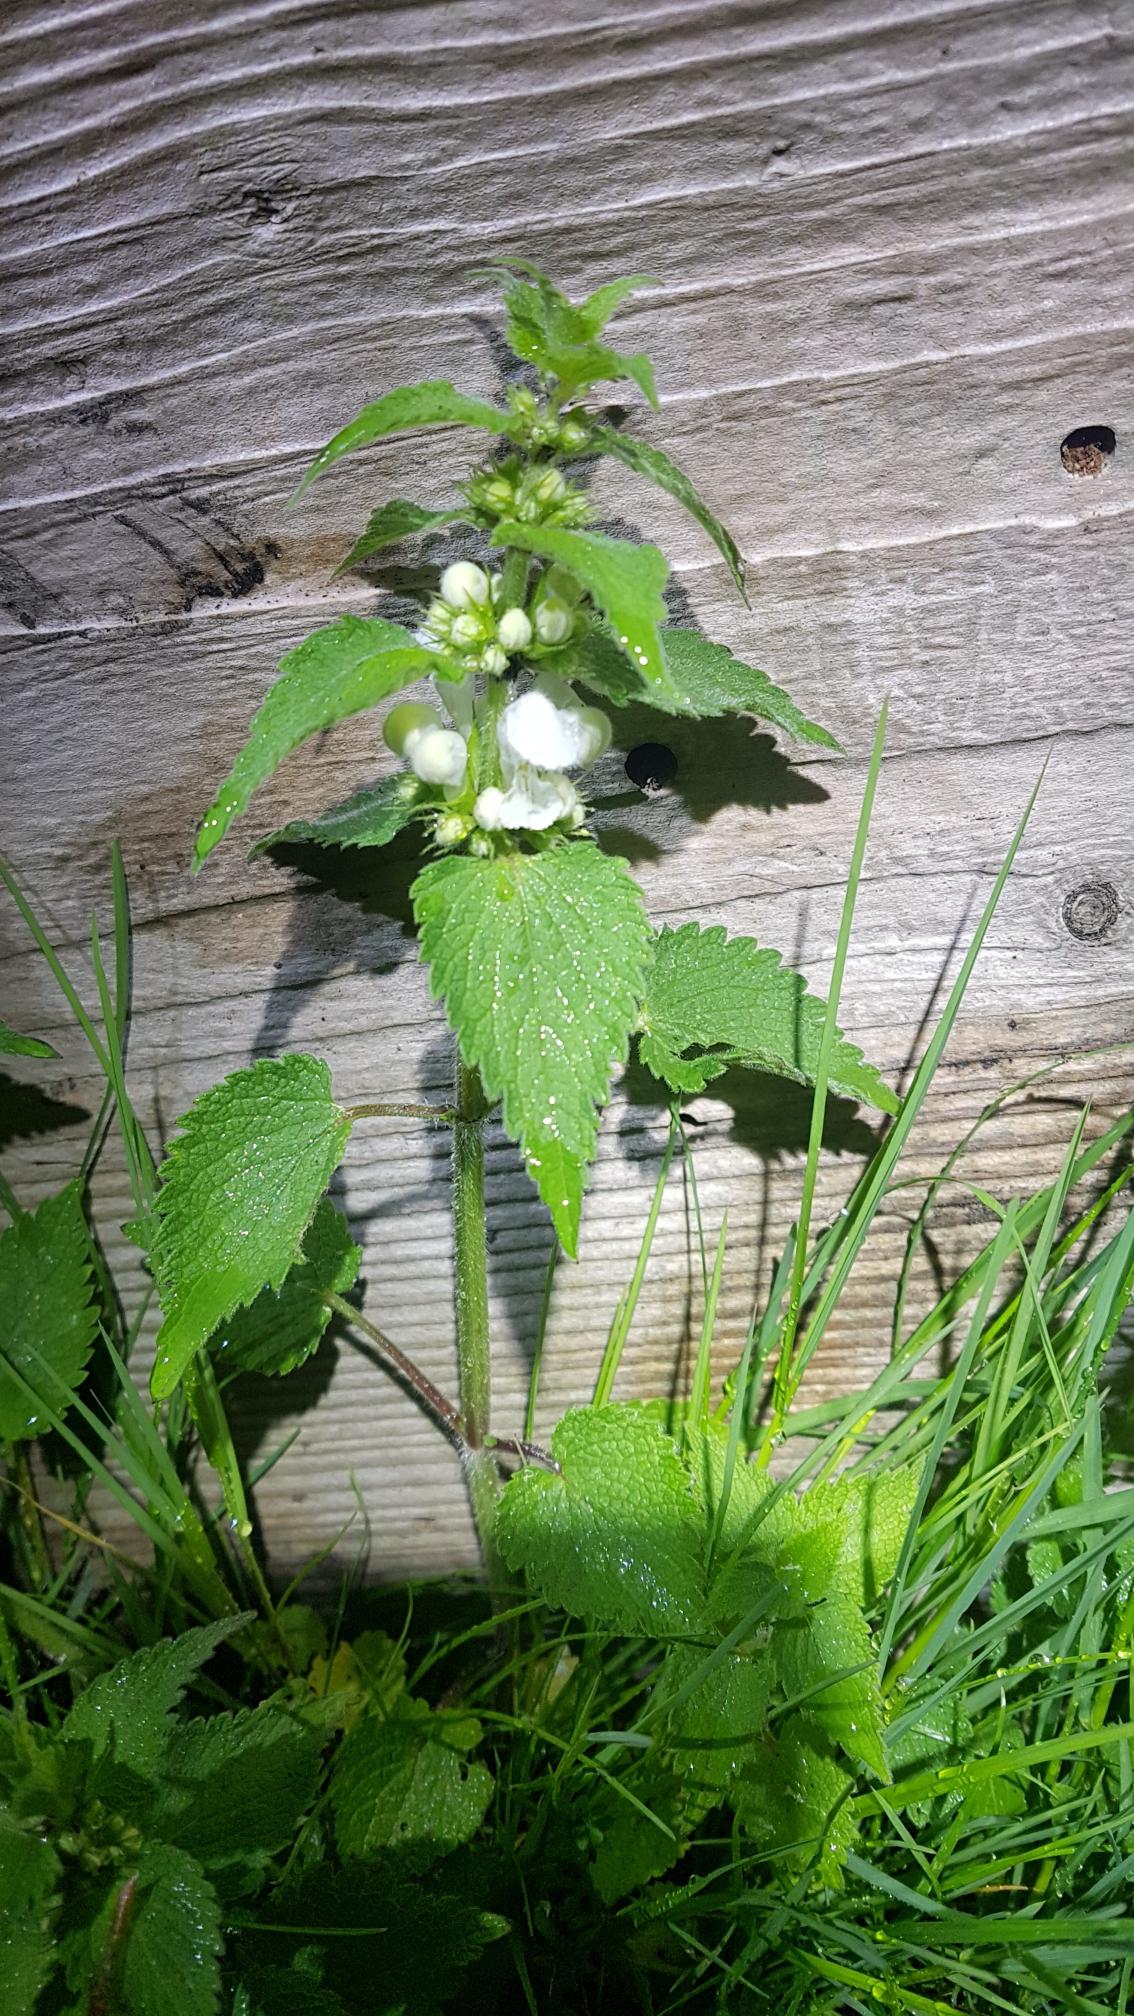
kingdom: Plantae
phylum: Tracheophyta
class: Magnoliopsida
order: Lamiales
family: Lamiaceae
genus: Lamium
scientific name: Lamium album
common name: Døvnælde
